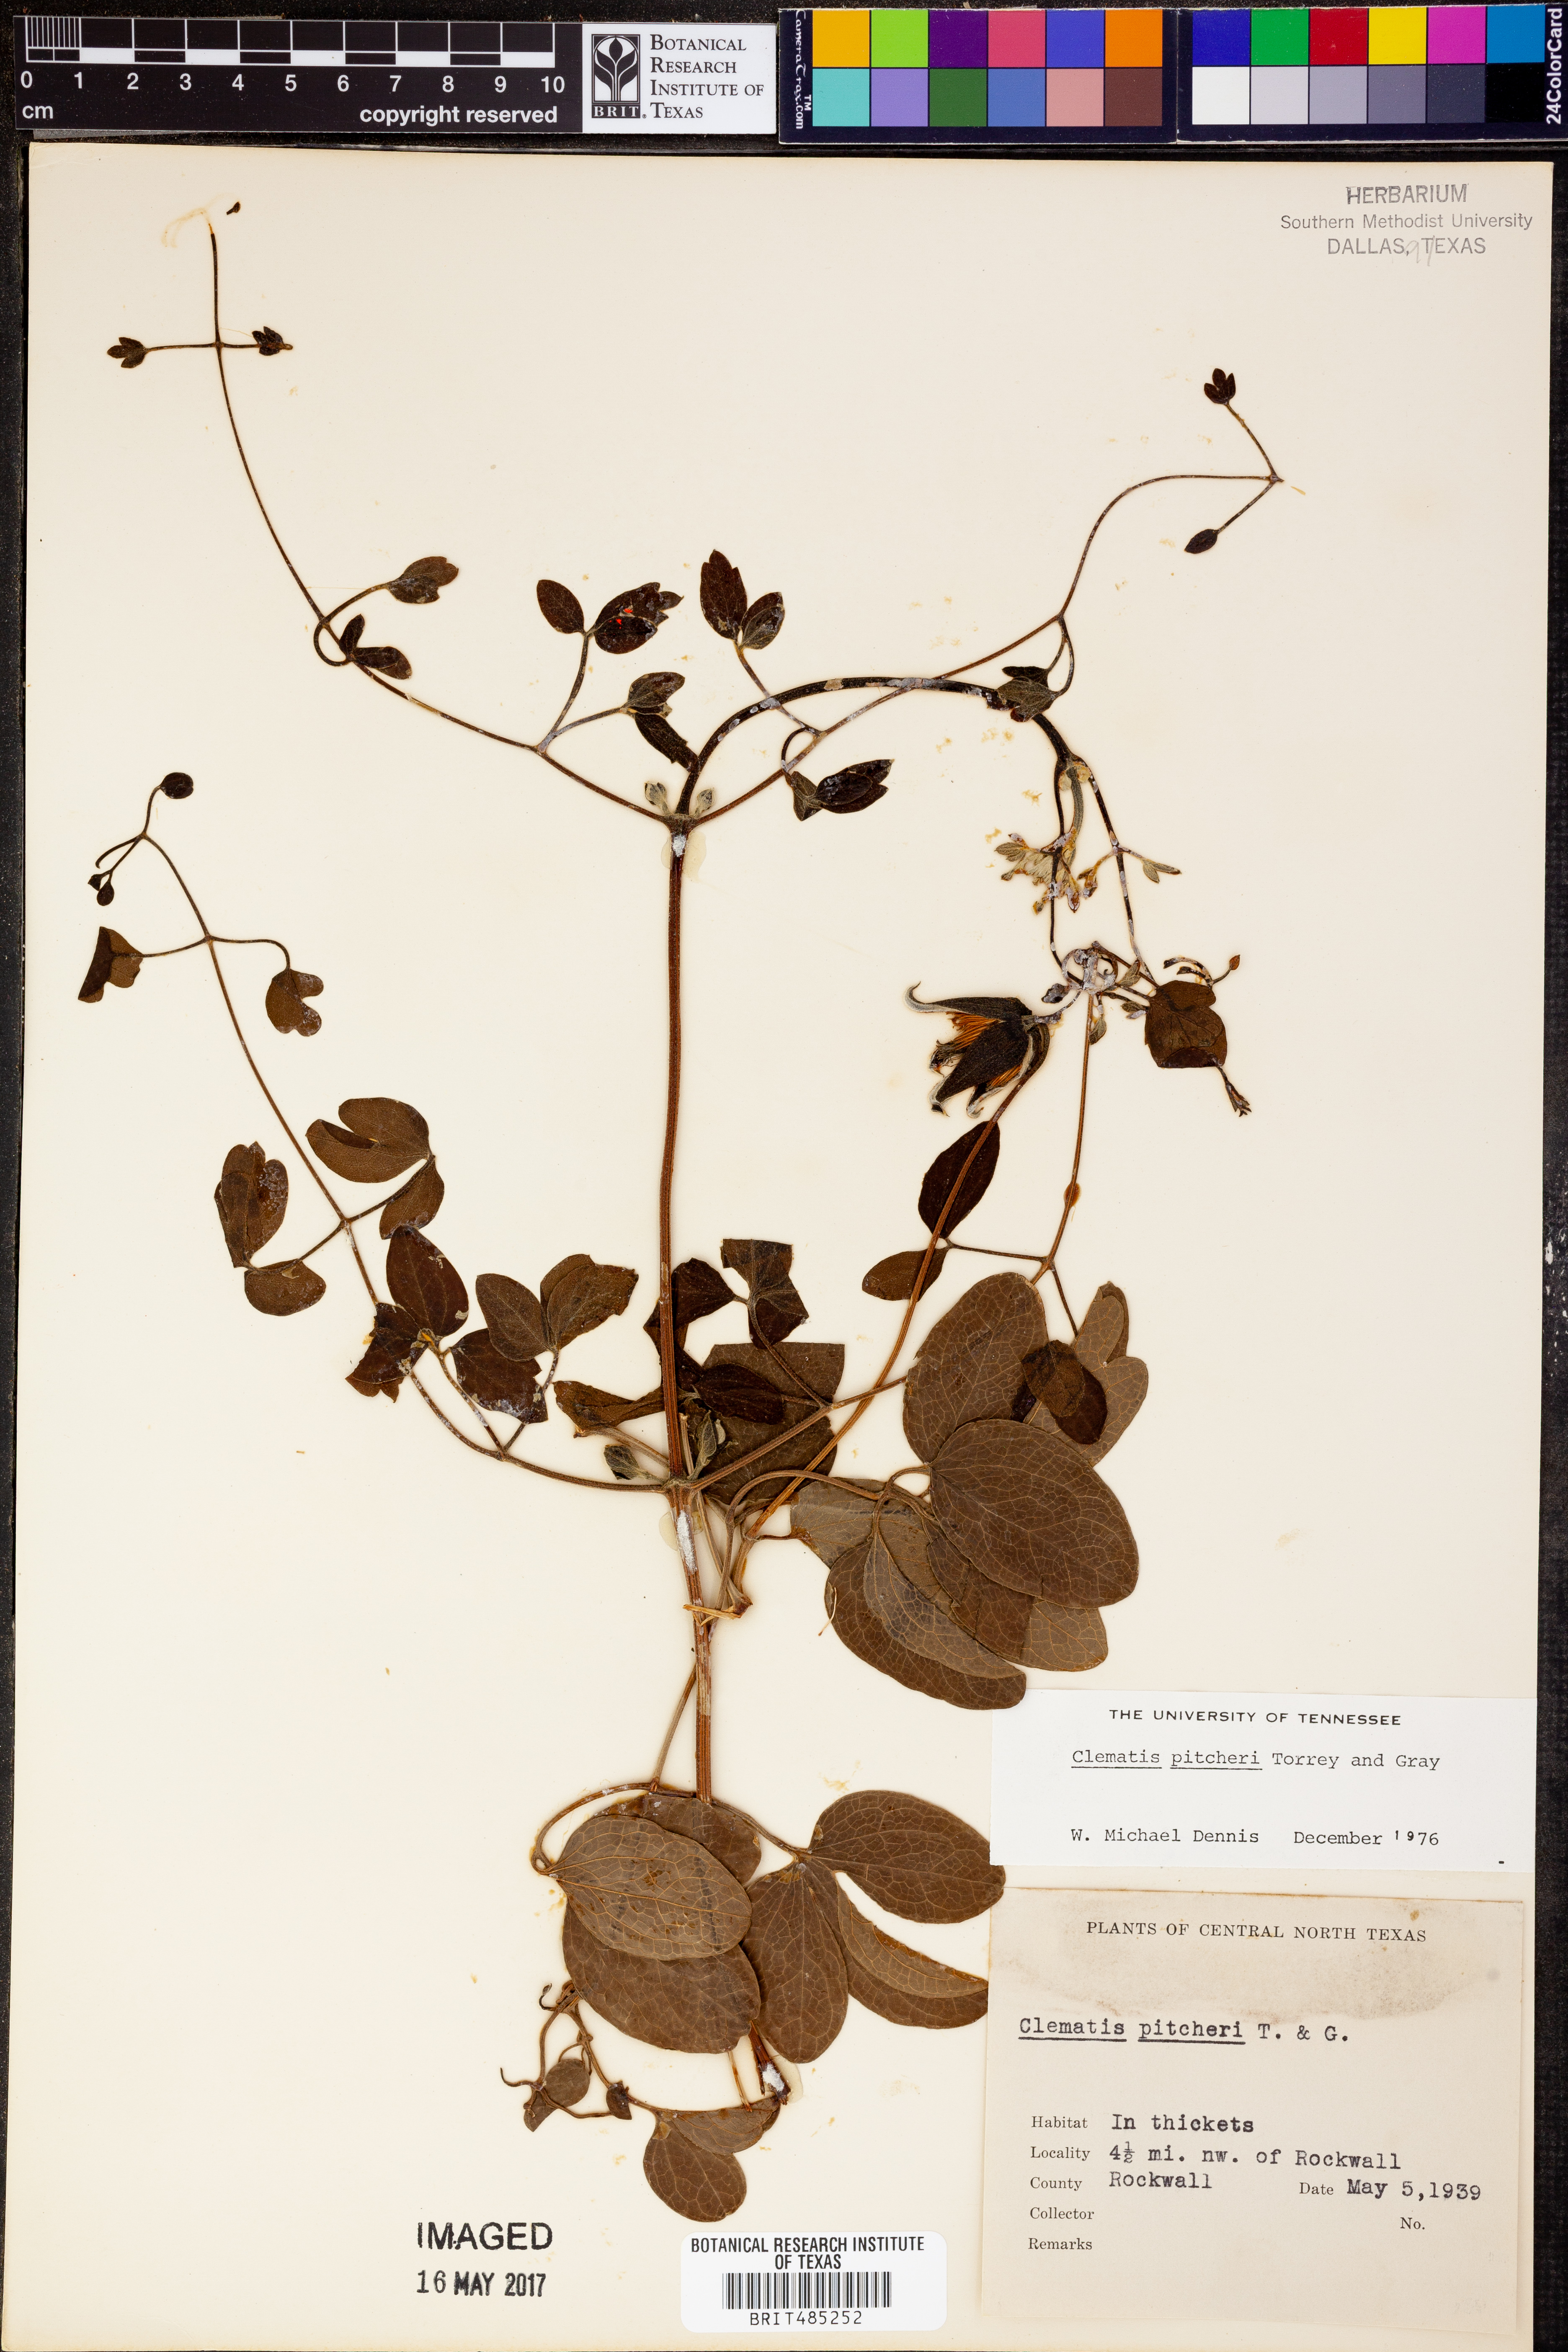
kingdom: Plantae
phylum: Tracheophyta
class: Magnoliopsida
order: Ranunculales
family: Ranunculaceae
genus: Clematis
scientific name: Clematis pitcheri
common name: Bellflower clematis
